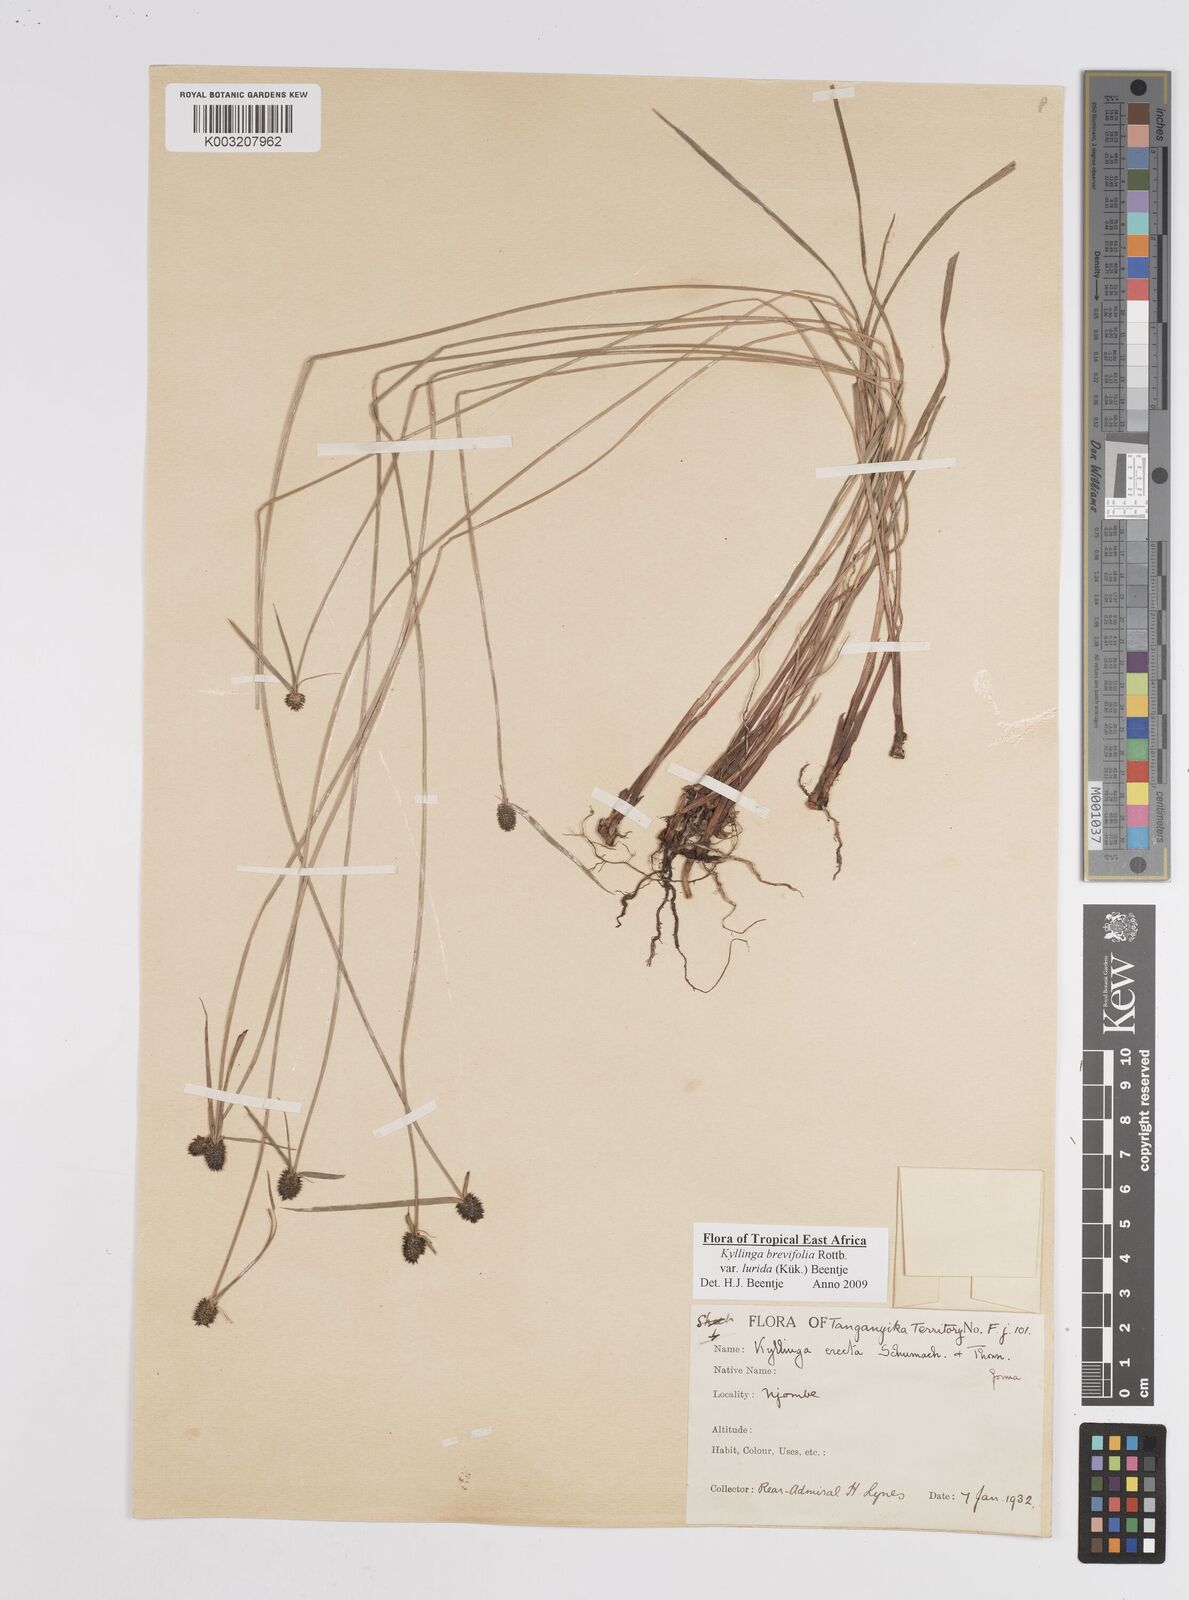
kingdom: Plantae
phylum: Tracheophyta
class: Liliopsida
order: Poales
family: Cyperaceae
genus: Cyperus
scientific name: Cyperus erectus
